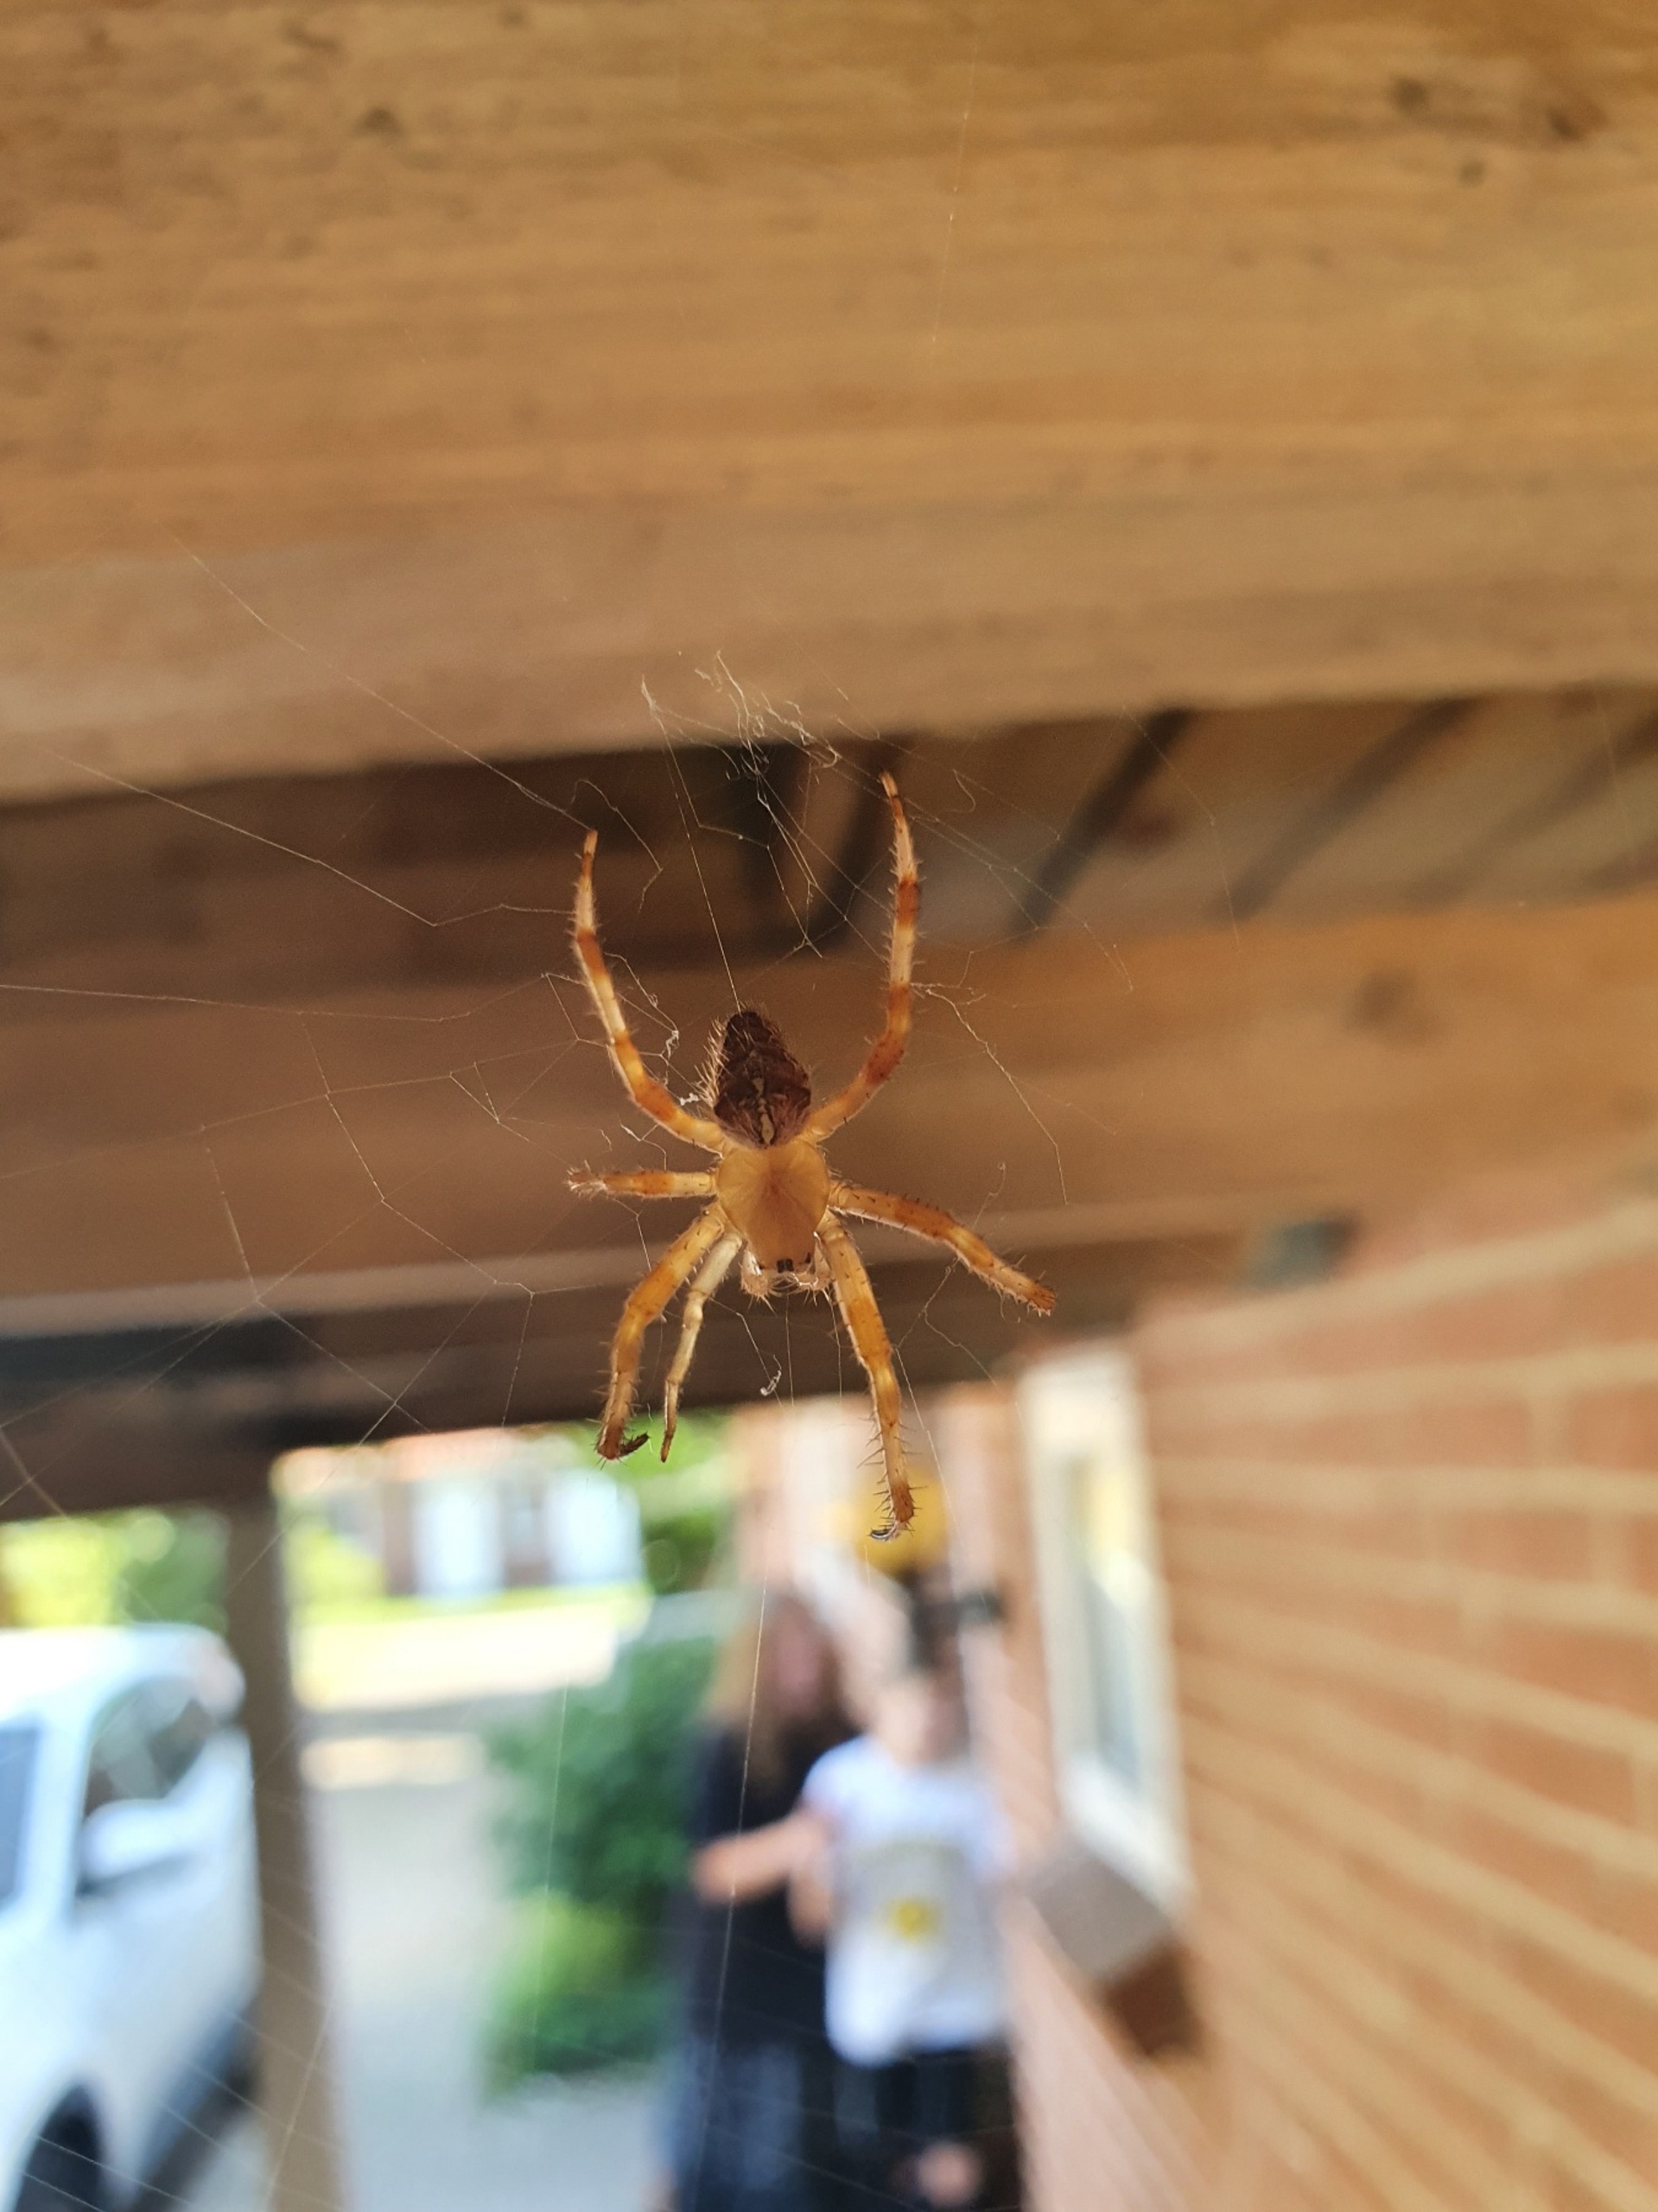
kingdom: Animalia
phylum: Arthropoda
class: Arachnida
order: Araneae
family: Araneidae
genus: Araneus
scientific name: Araneus diadematus
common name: Korsedderkop
